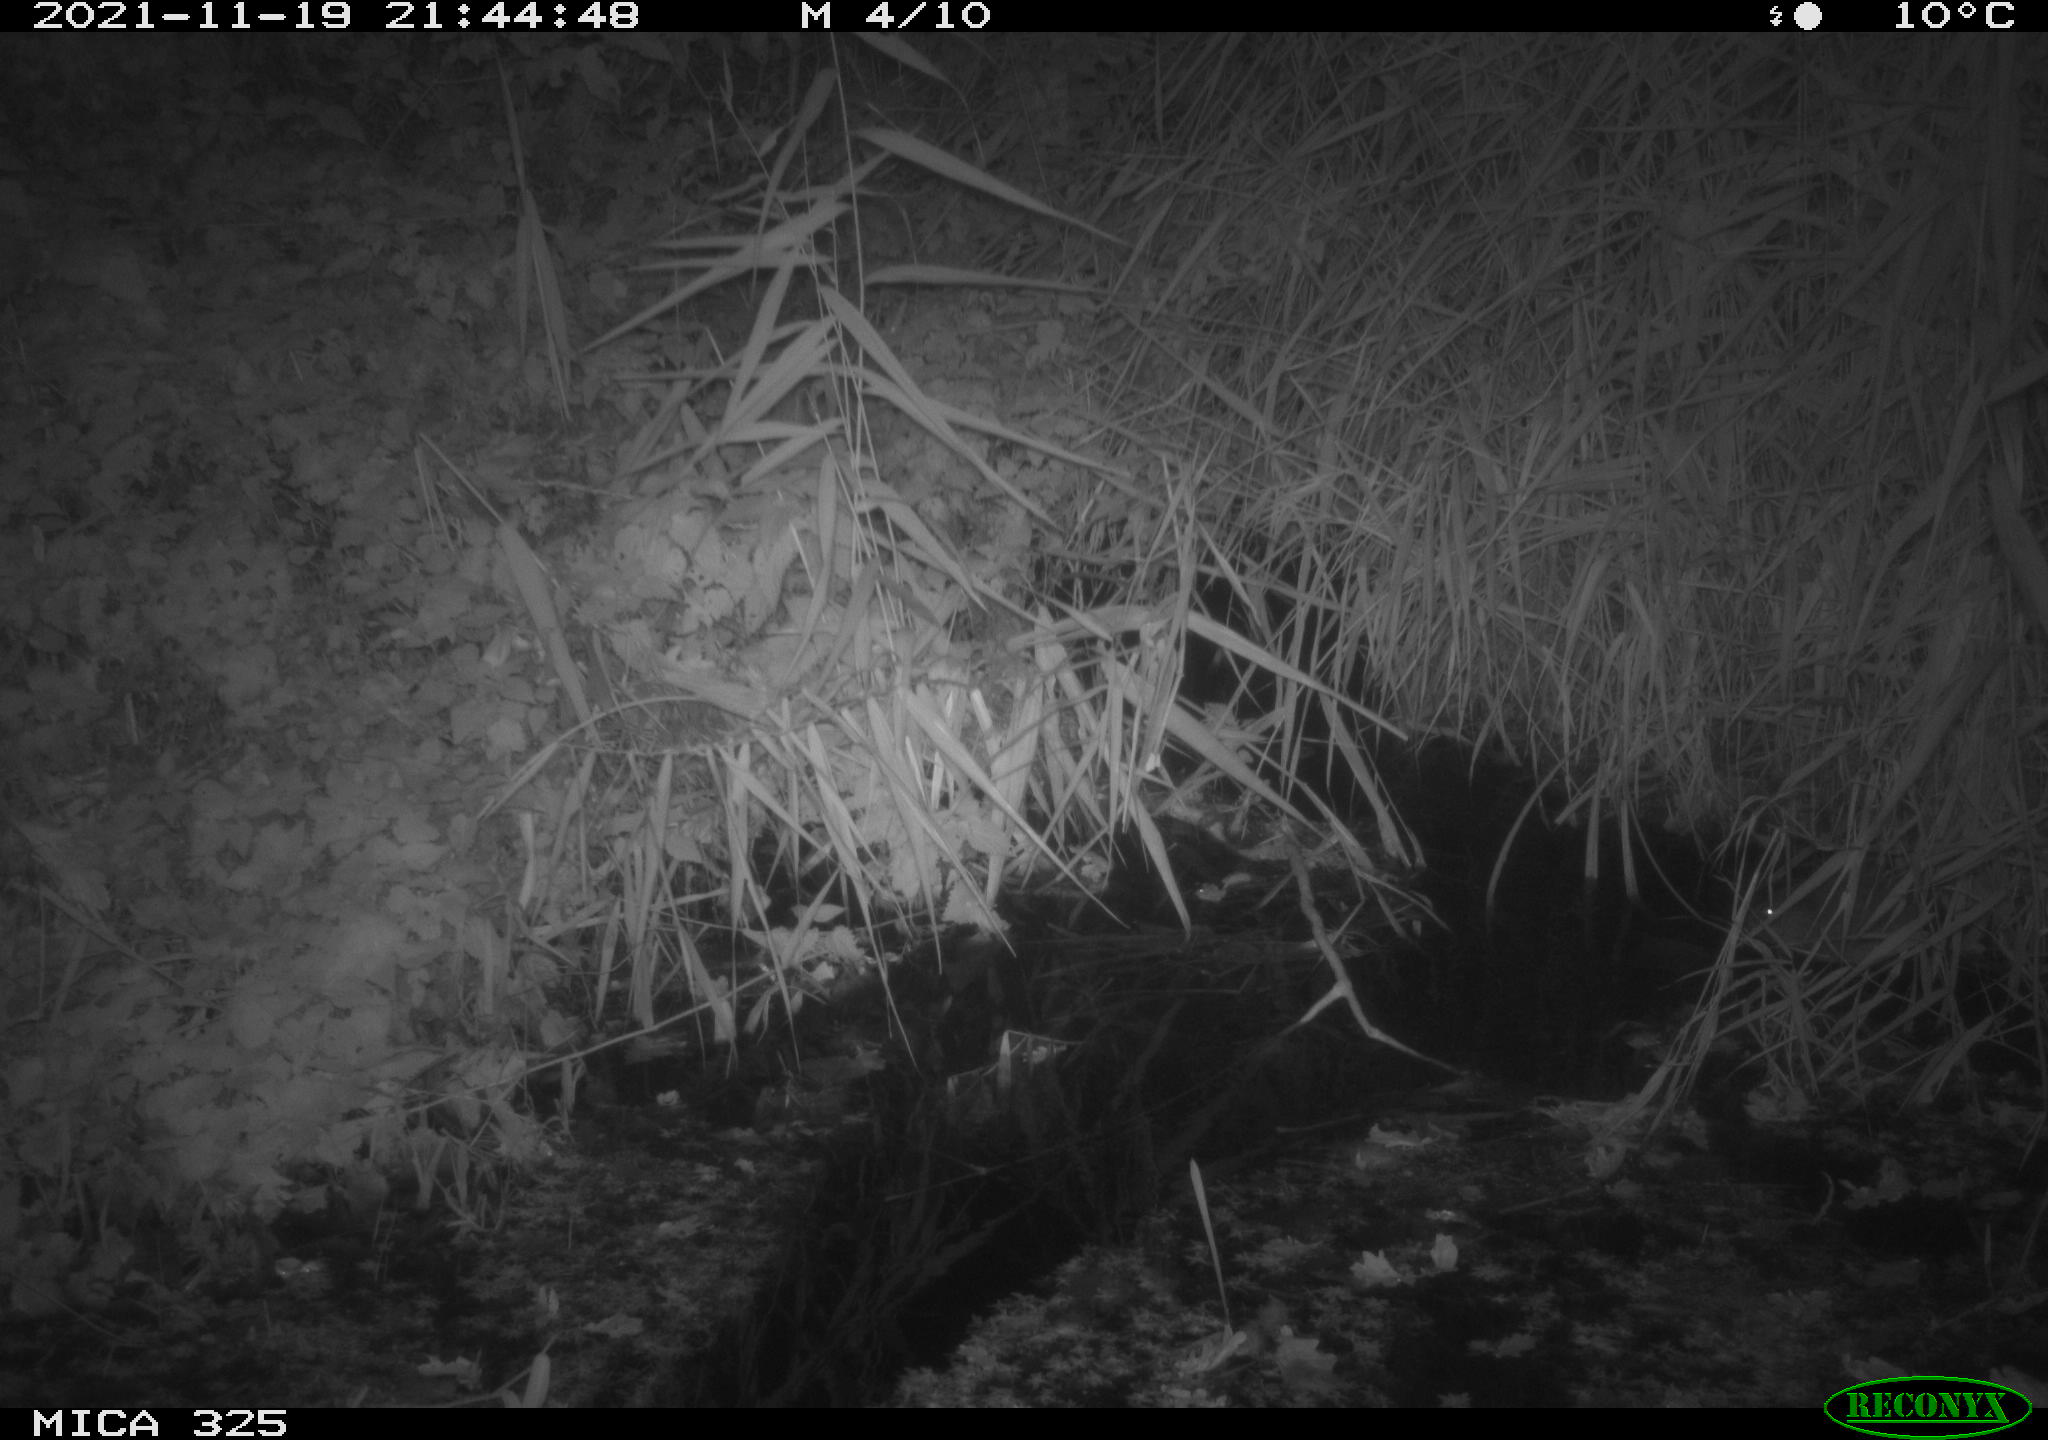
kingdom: Animalia
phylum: Chordata
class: Mammalia
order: Rodentia
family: Cricetidae
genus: Ondatra
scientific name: Ondatra zibethicus
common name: Muskrat
